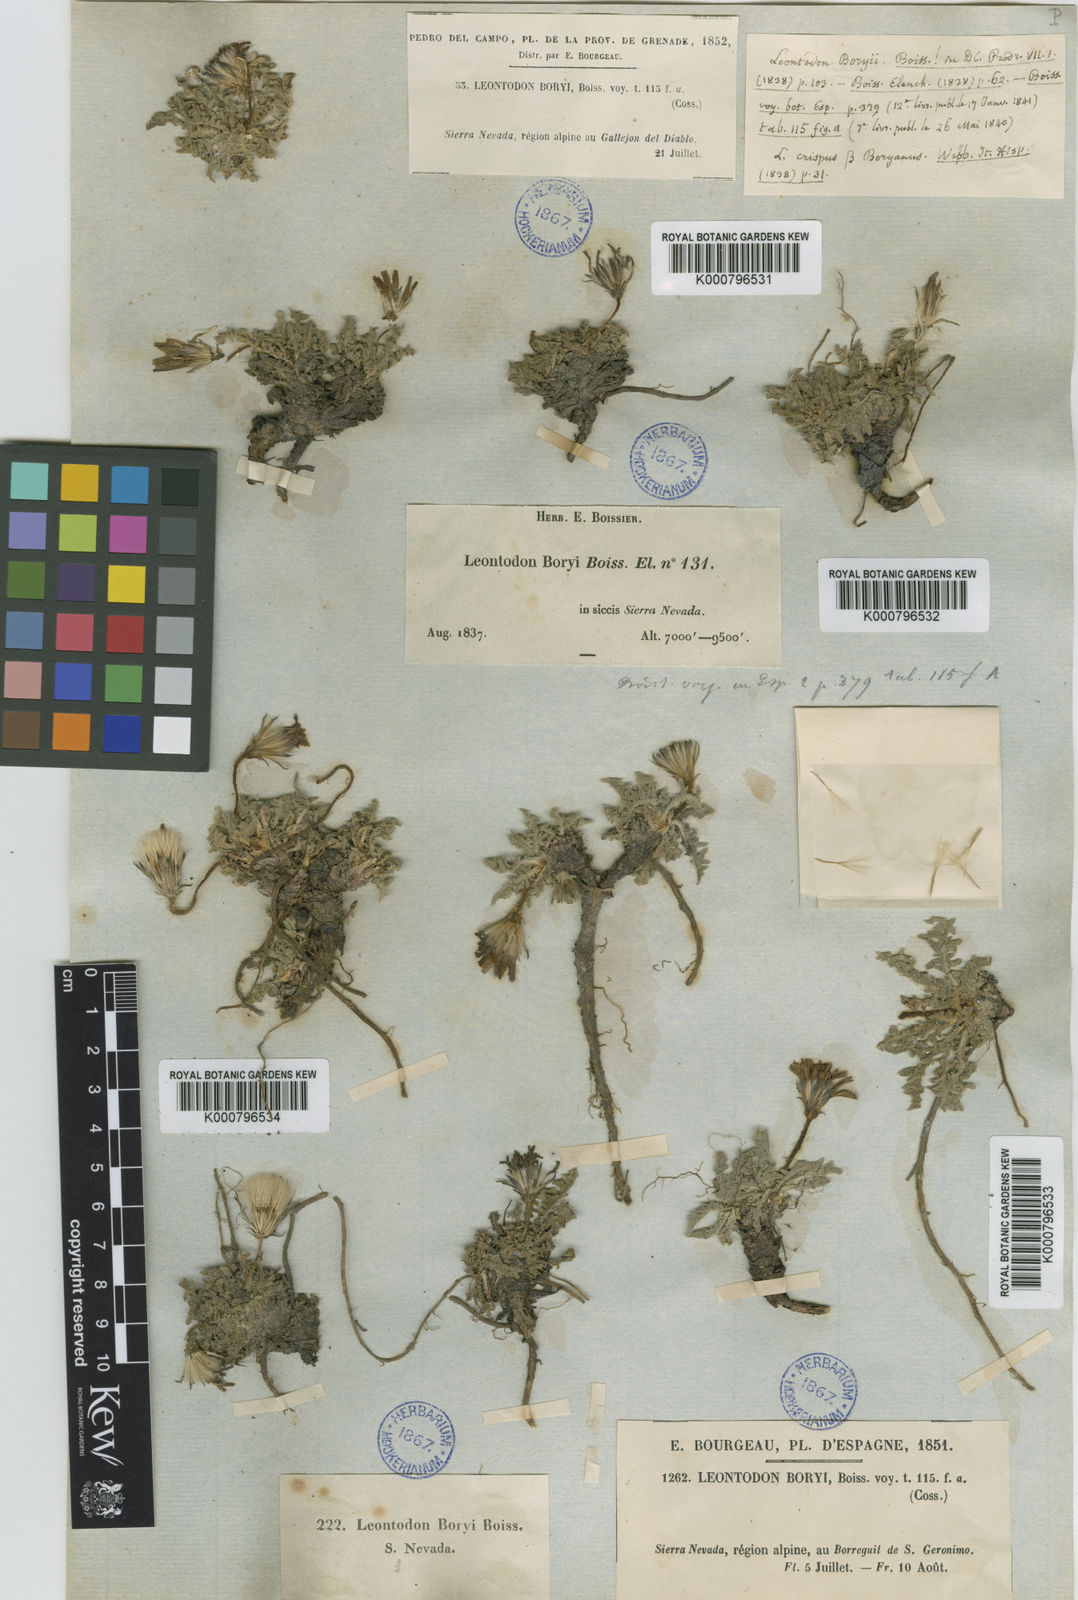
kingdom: Plantae
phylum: Tracheophyta
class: Magnoliopsida
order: Asterales
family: Asteraceae
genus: Leontodon
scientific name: Leontodon boryi
